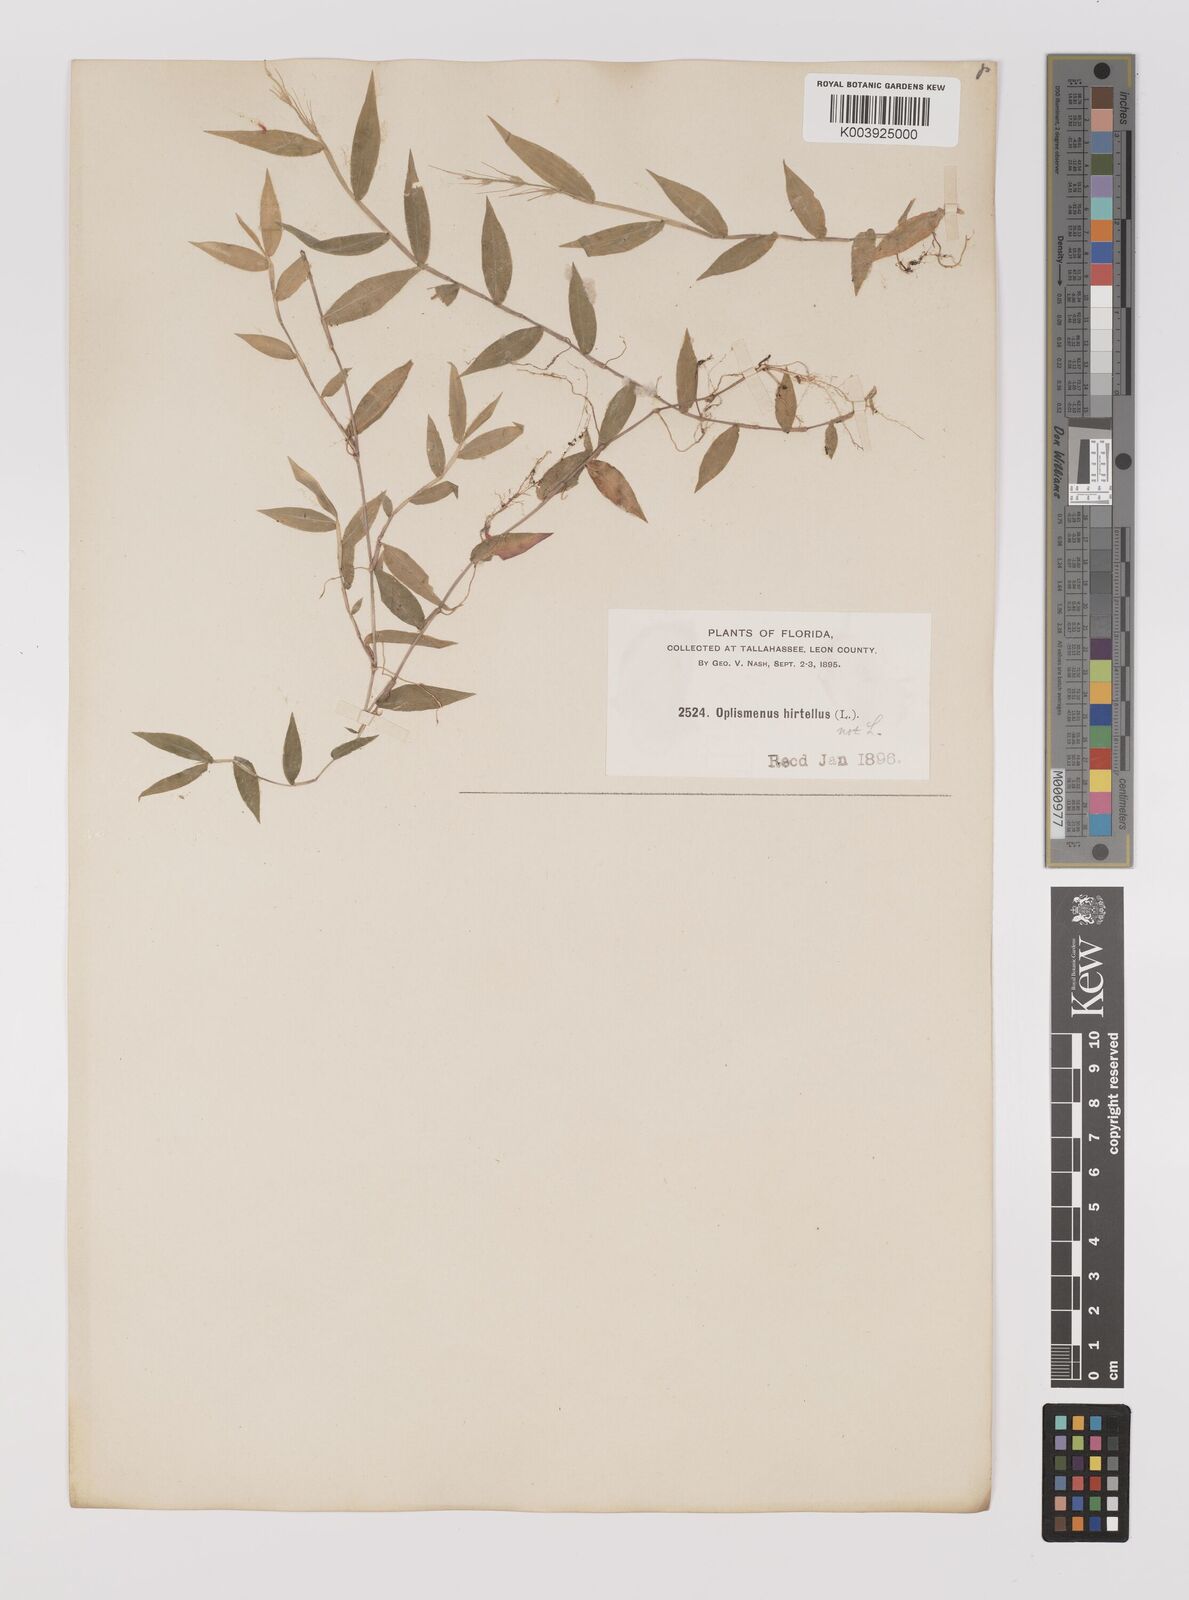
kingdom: Plantae
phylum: Tracheophyta
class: Liliopsida
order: Poales
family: Poaceae
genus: Oplismenus
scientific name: Oplismenus undulatifolius
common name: Wavyleaf basketgrass
